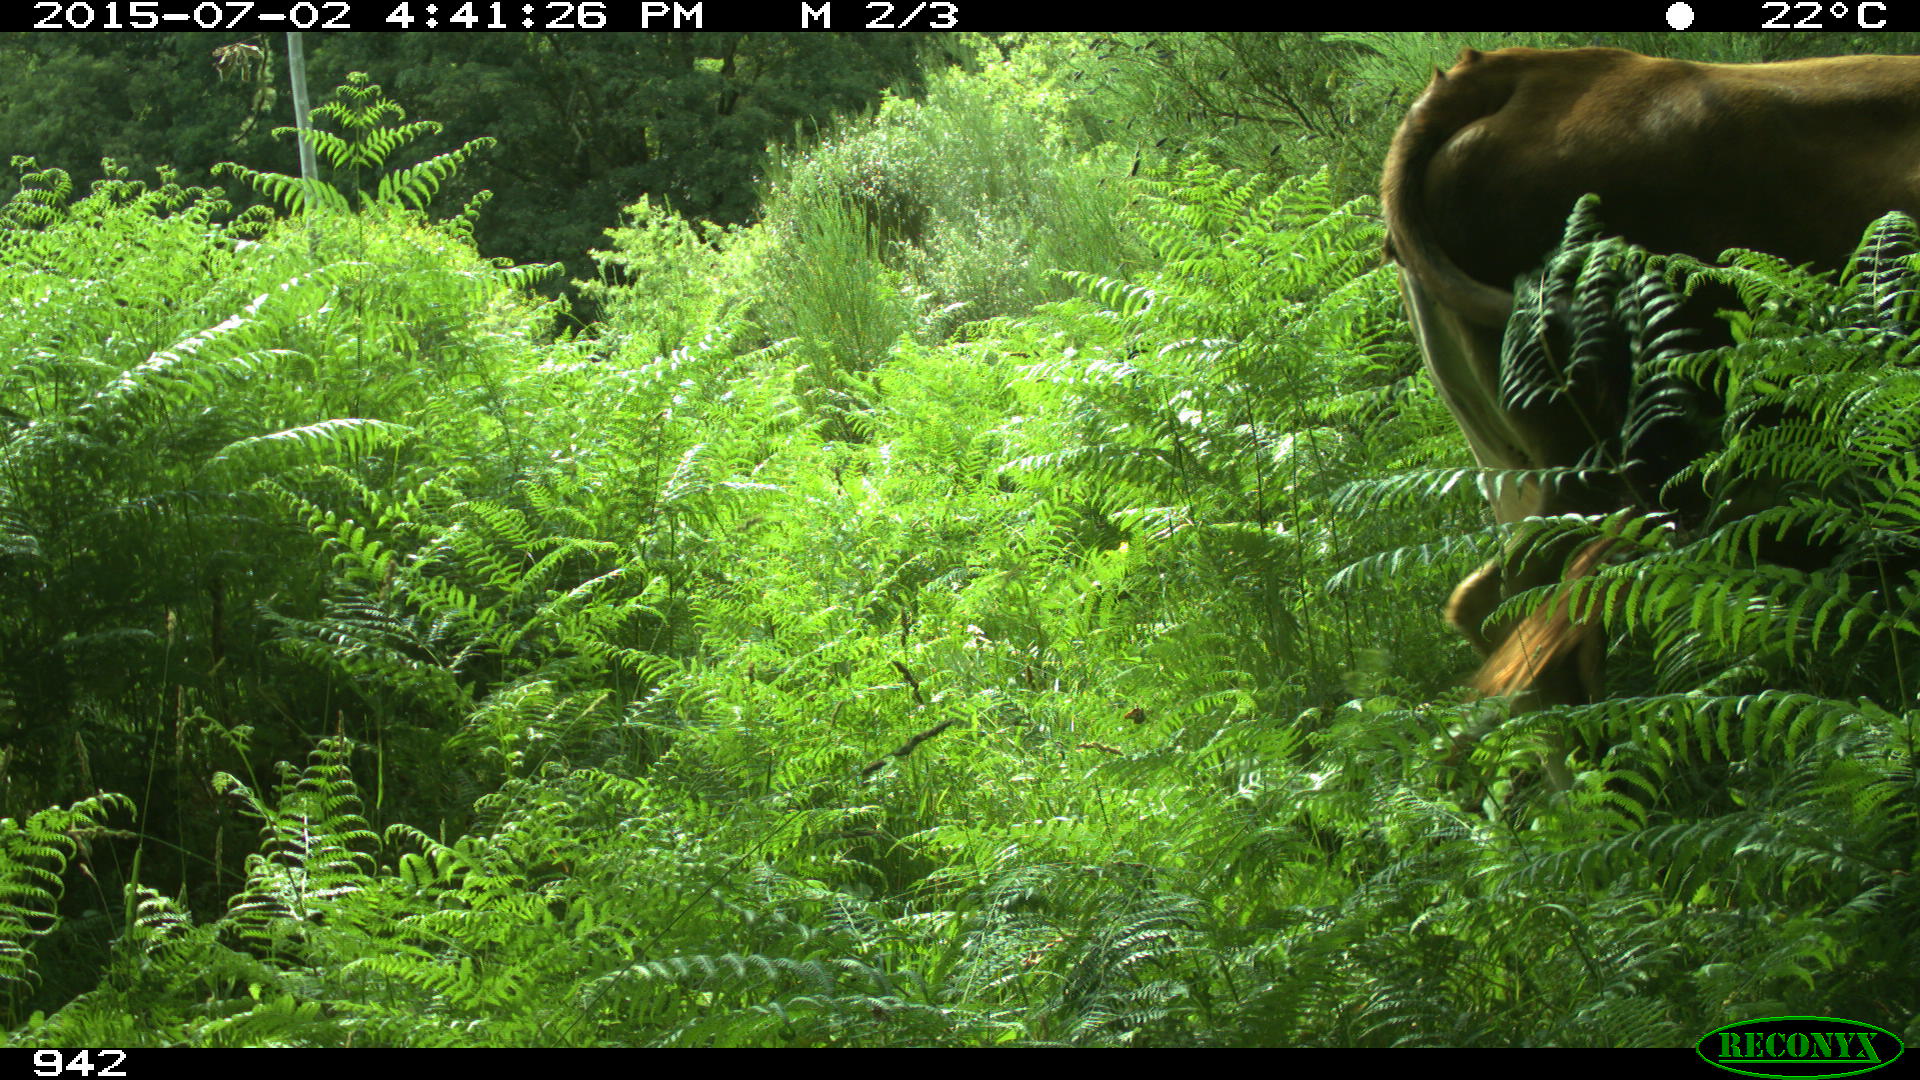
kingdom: Animalia
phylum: Chordata
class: Mammalia
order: Artiodactyla
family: Bovidae
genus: Bos
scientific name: Bos taurus
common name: Domesticated cattle
